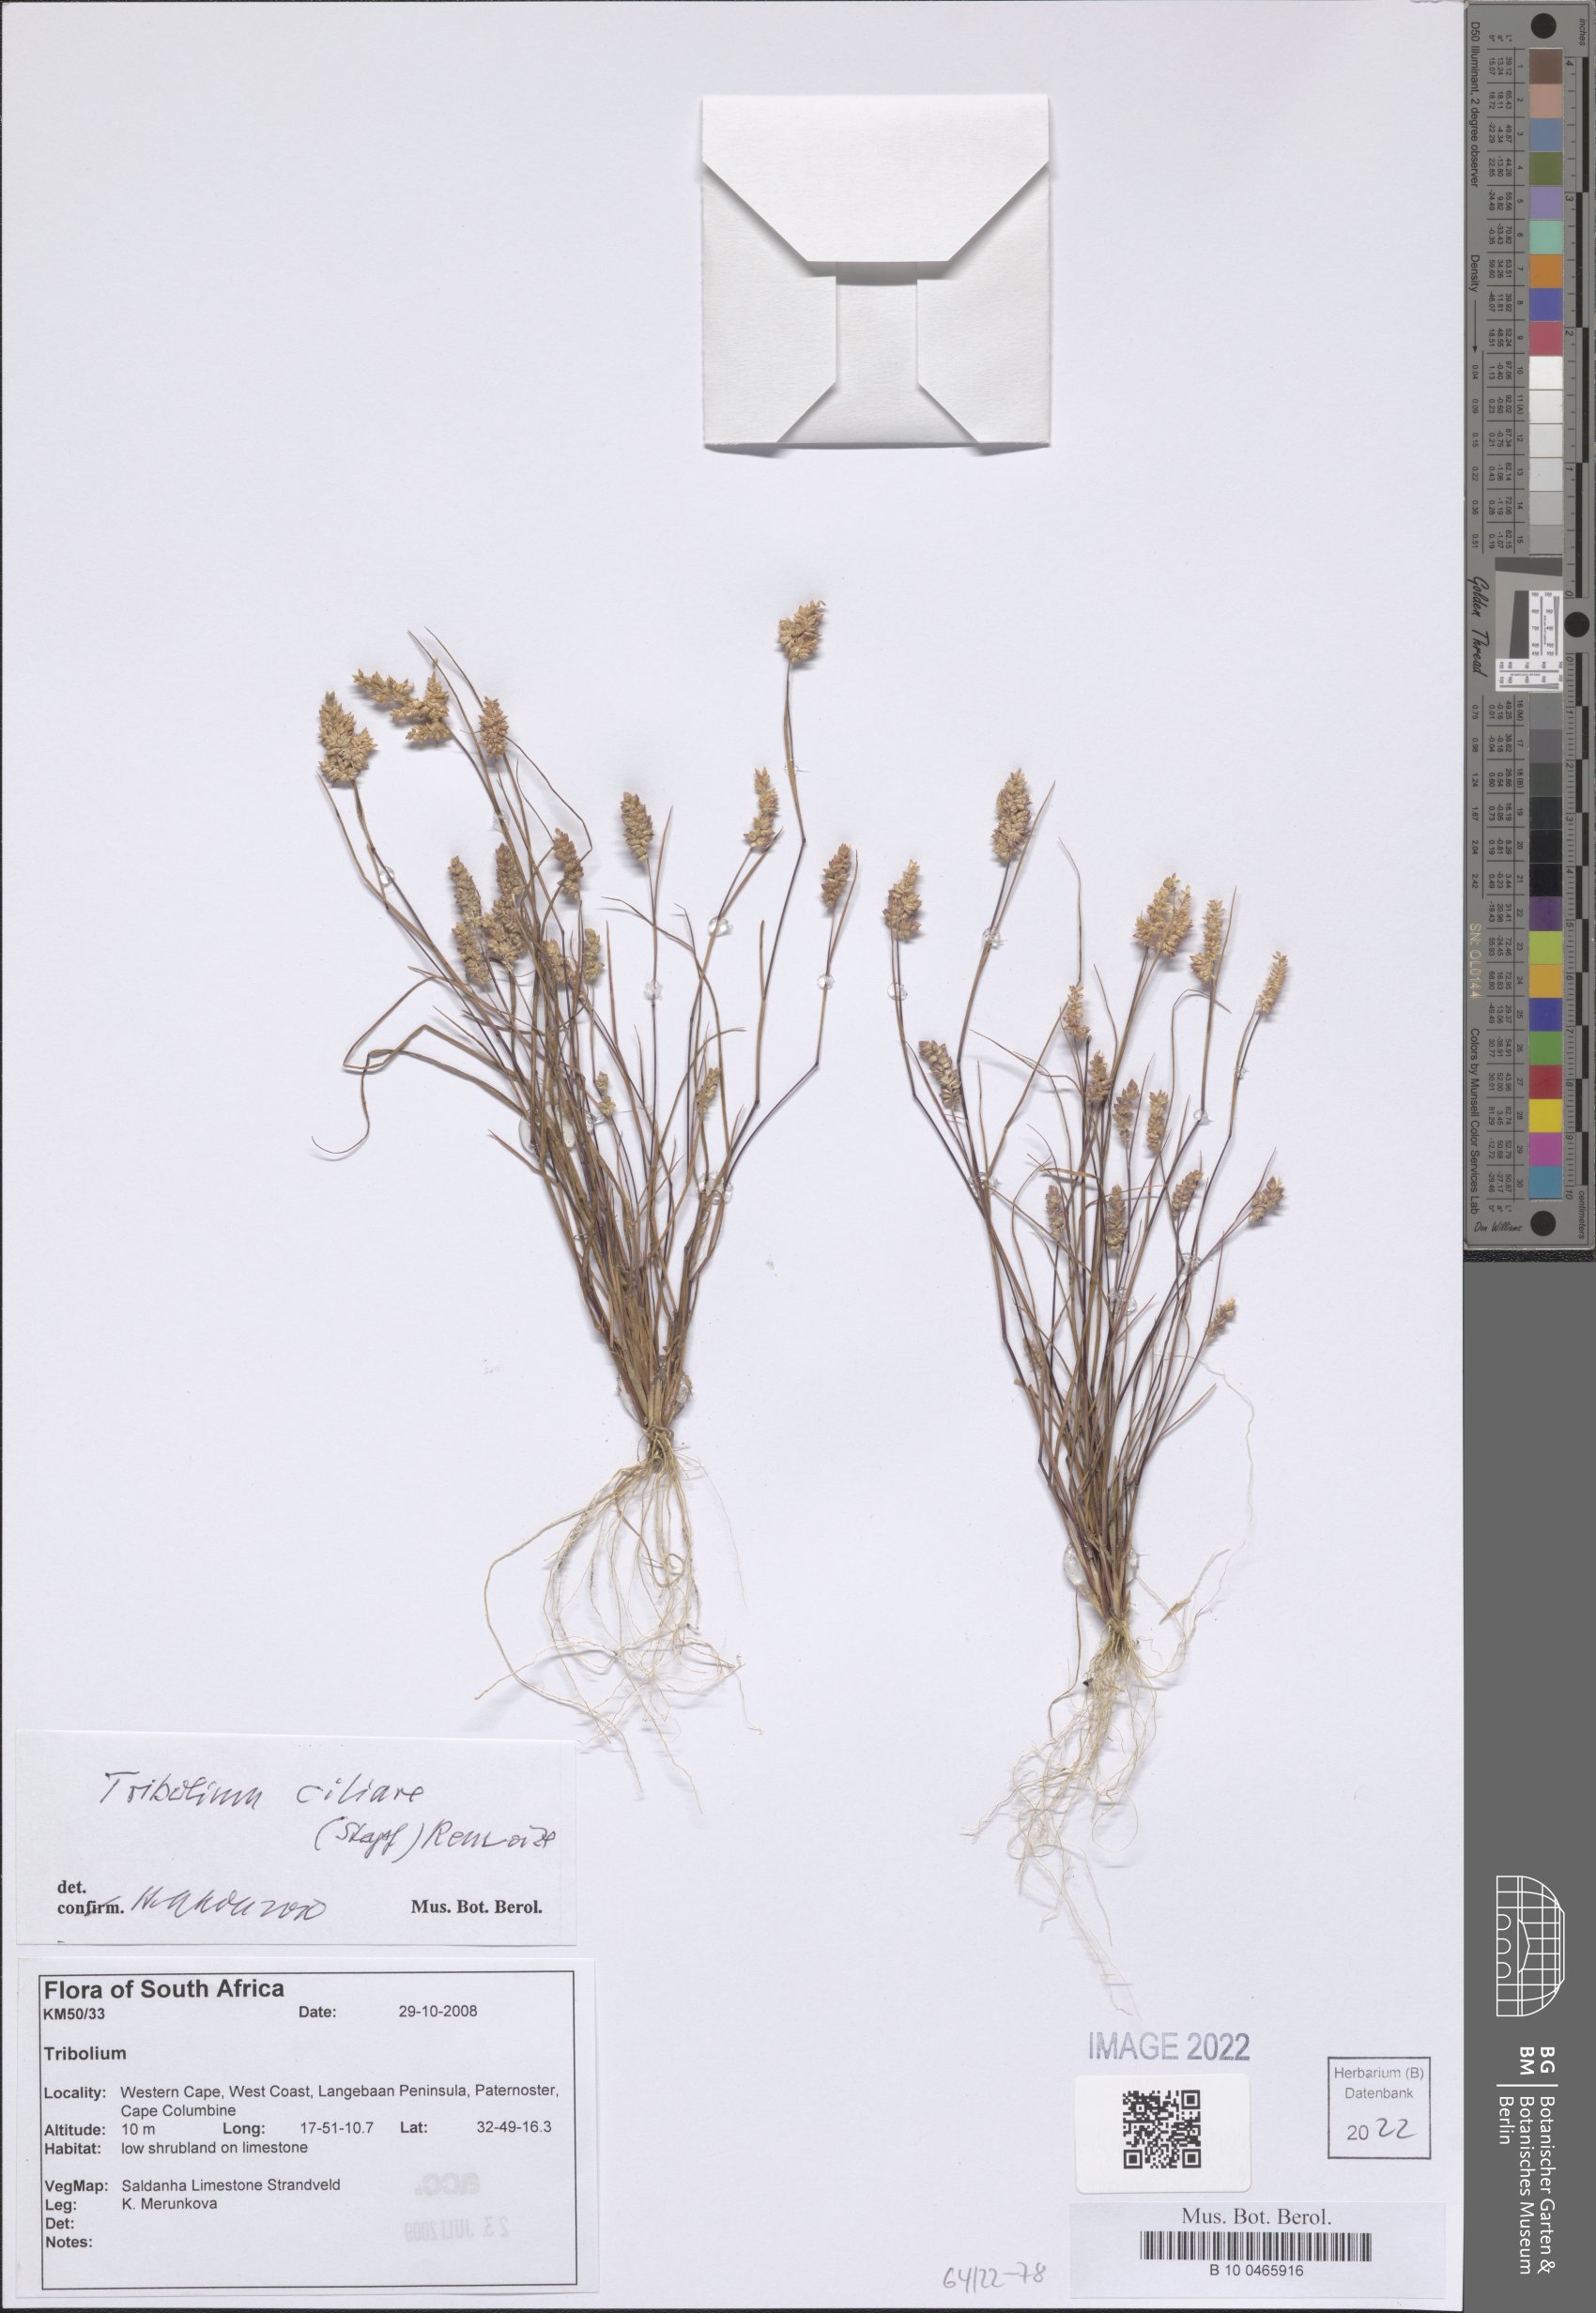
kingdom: Plantae
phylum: Tracheophyta
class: Liliopsida
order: Poales
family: Poaceae
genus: Tribolium
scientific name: Tribolium ciliare
